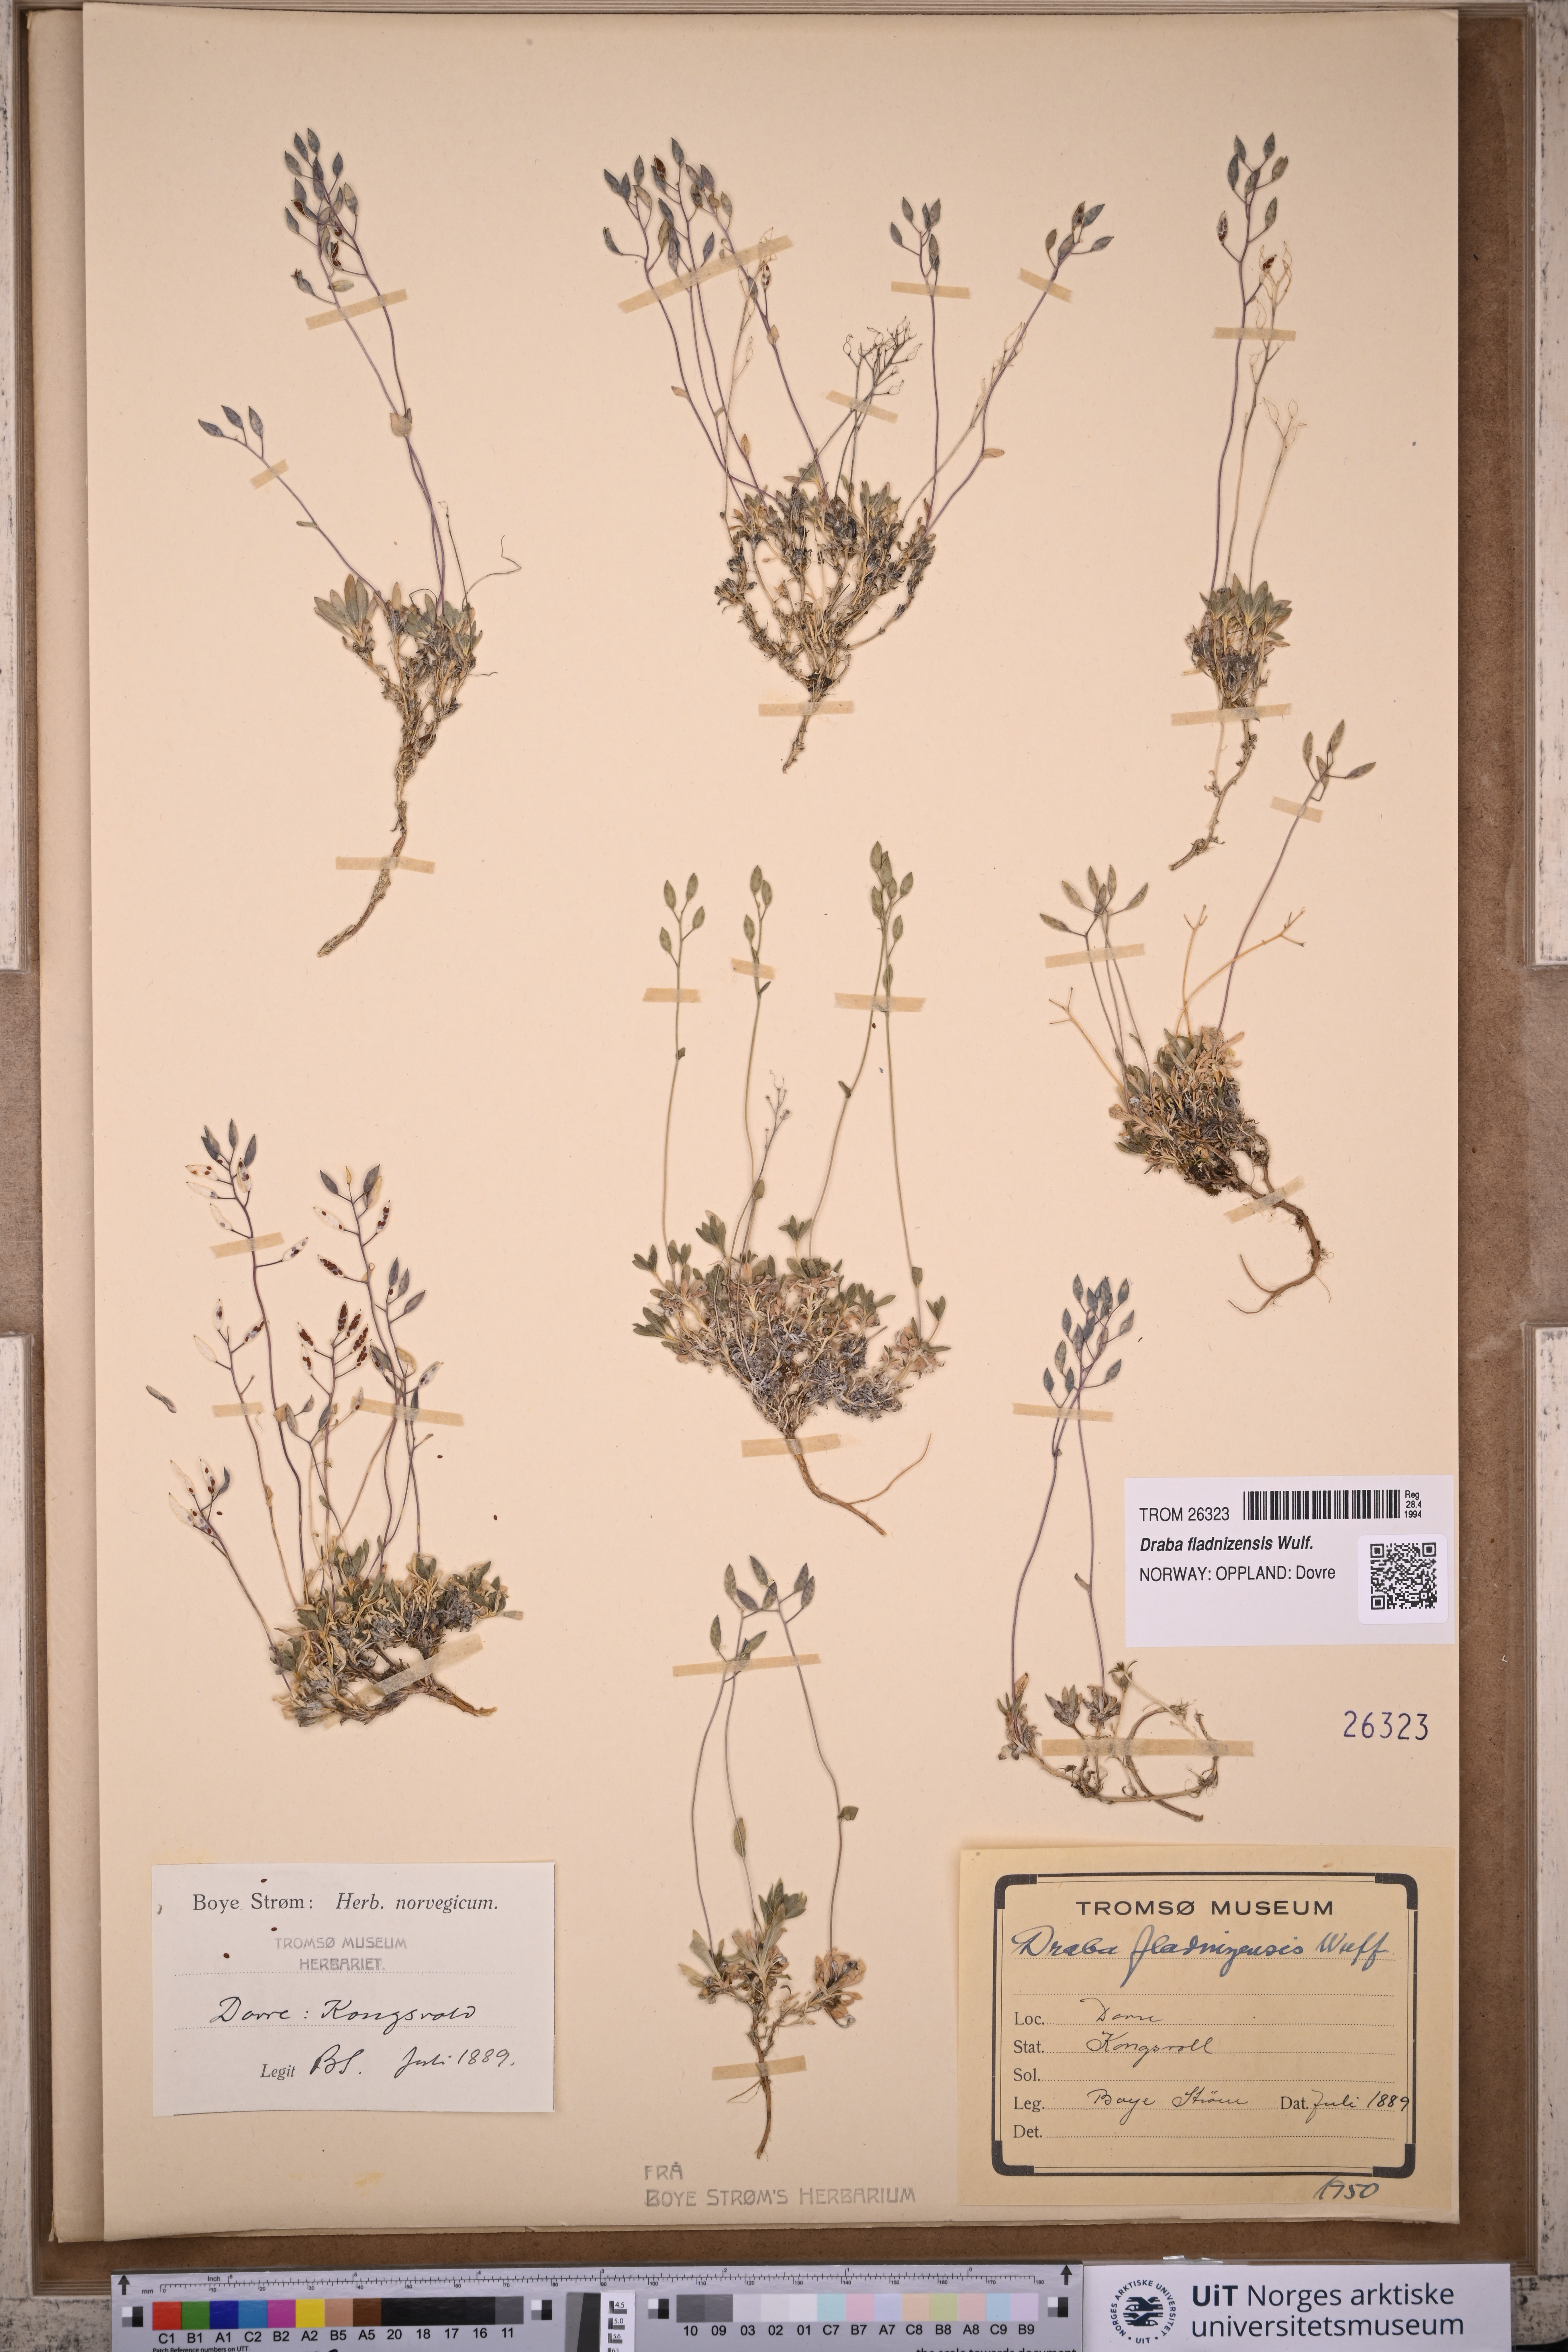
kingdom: Plantae
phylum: Tracheophyta
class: Magnoliopsida
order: Brassicales
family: Brassicaceae
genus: Draba
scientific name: Draba fladnizensis
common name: Austrian draba
